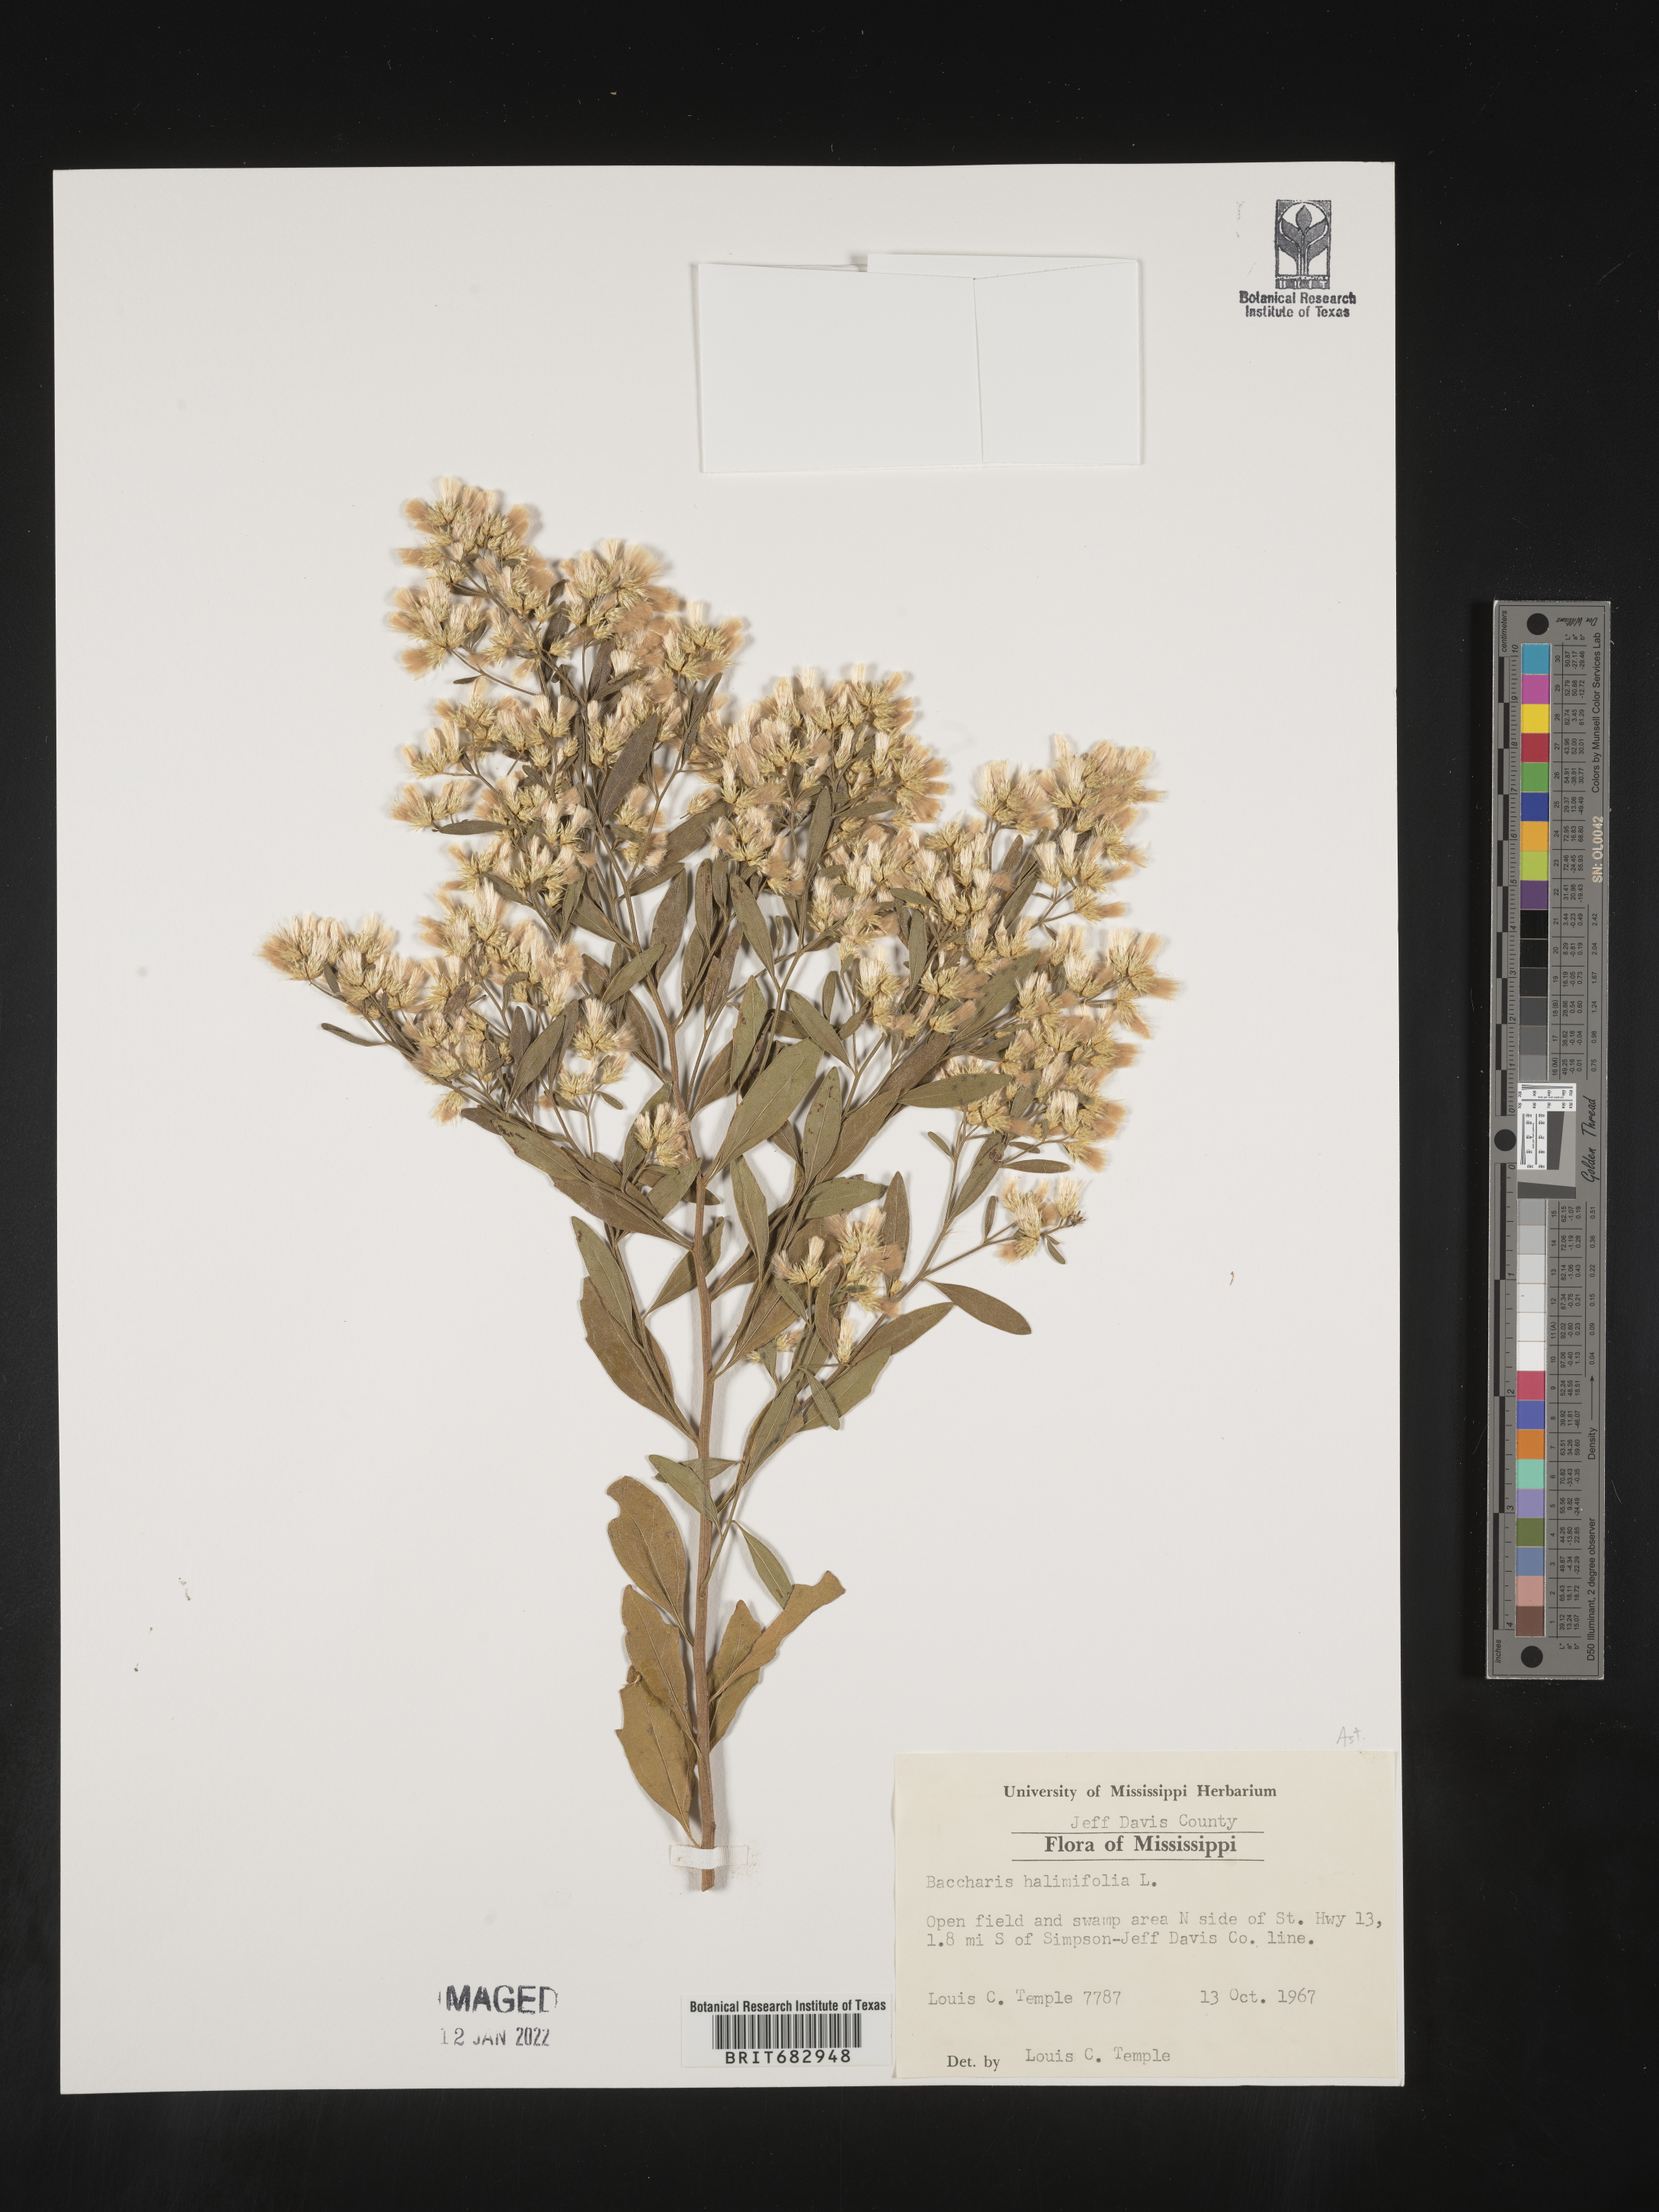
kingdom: Plantae
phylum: Tracheophyta
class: Magnoliopsida
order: Asterales
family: Asteraceae
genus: Nidorella
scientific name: Nidorella ivifolia
